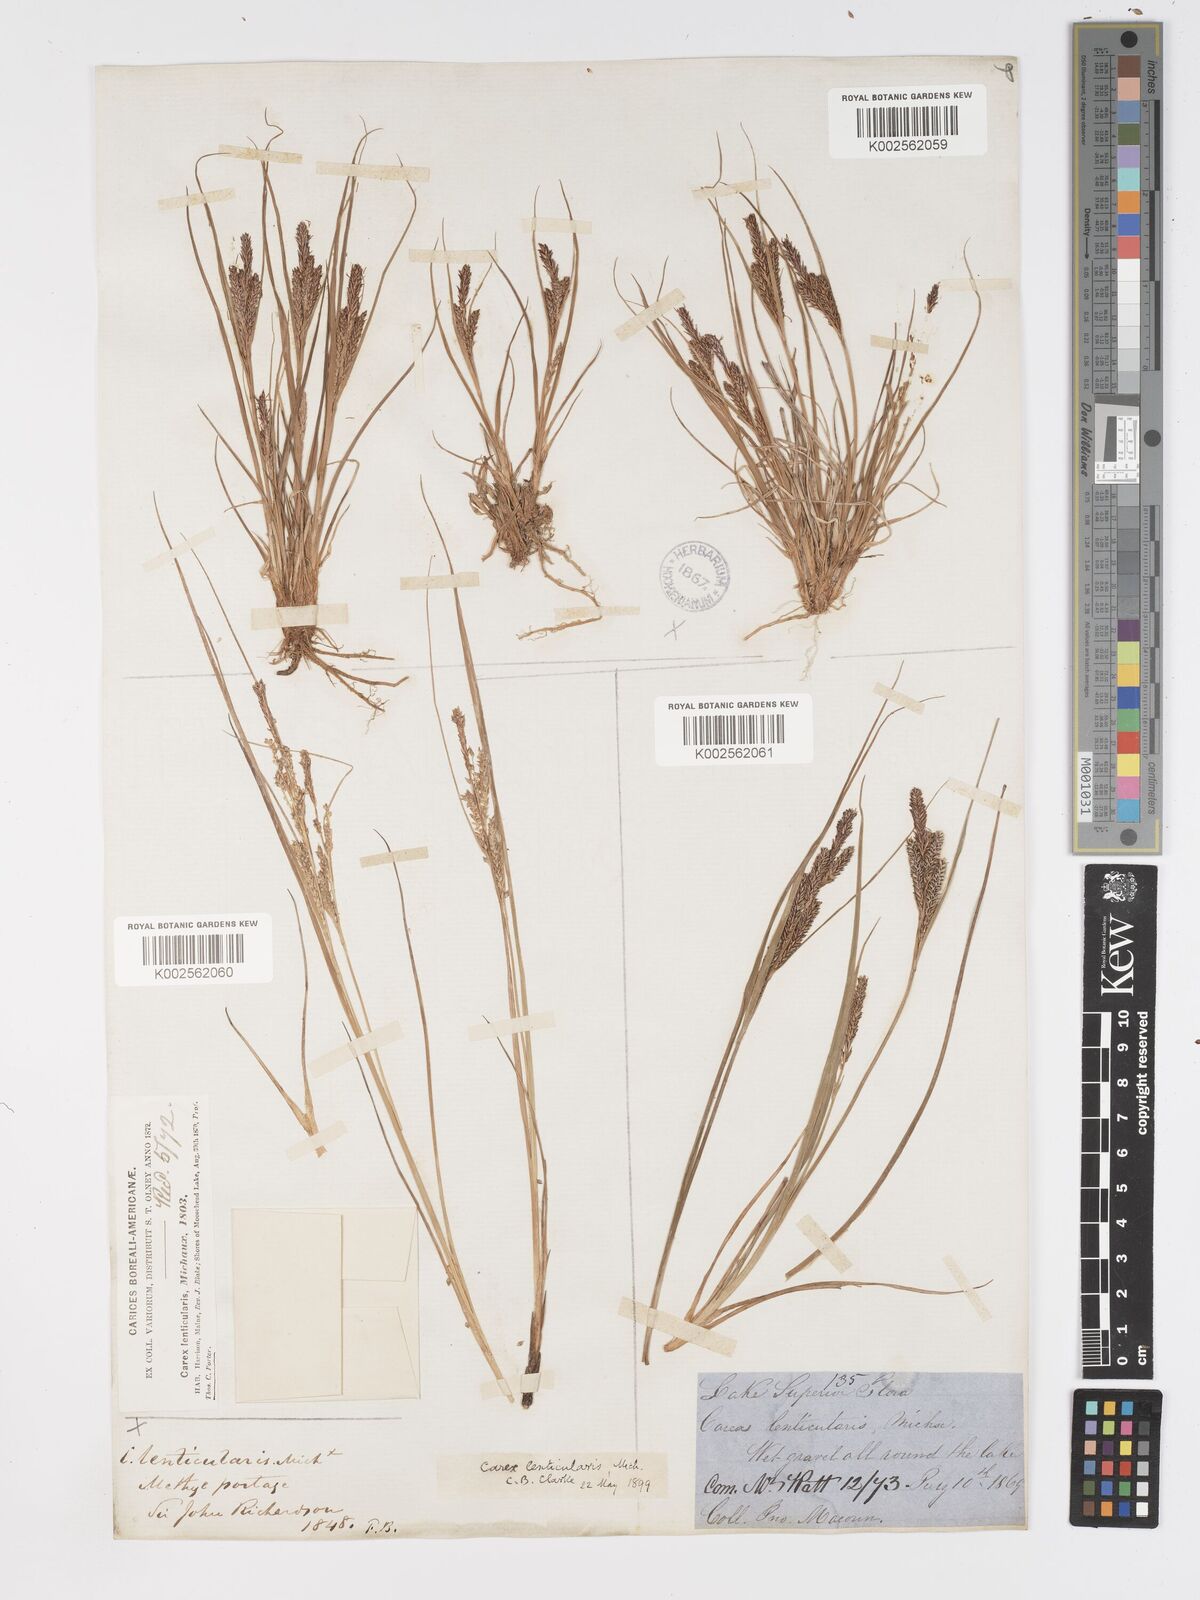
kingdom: Plantae
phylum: Tracheophyta
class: Liliopsida
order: Poales
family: Cyperaceae
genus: Carex
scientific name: Carex lenticularis
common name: Lakeshore sedge
